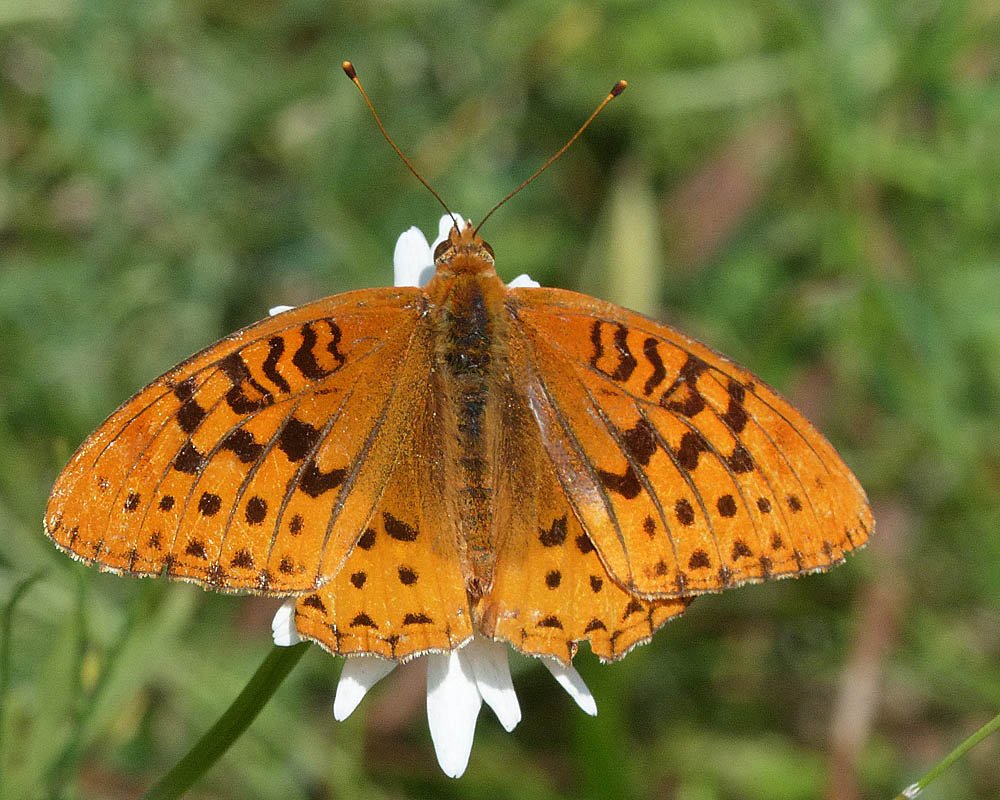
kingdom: Animalia
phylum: Arthropoda
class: Insecta
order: Lepidoptera
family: Nymphalidae
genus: Speyeria
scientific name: Speyeria cybele
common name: Great Spangled Fritillary
